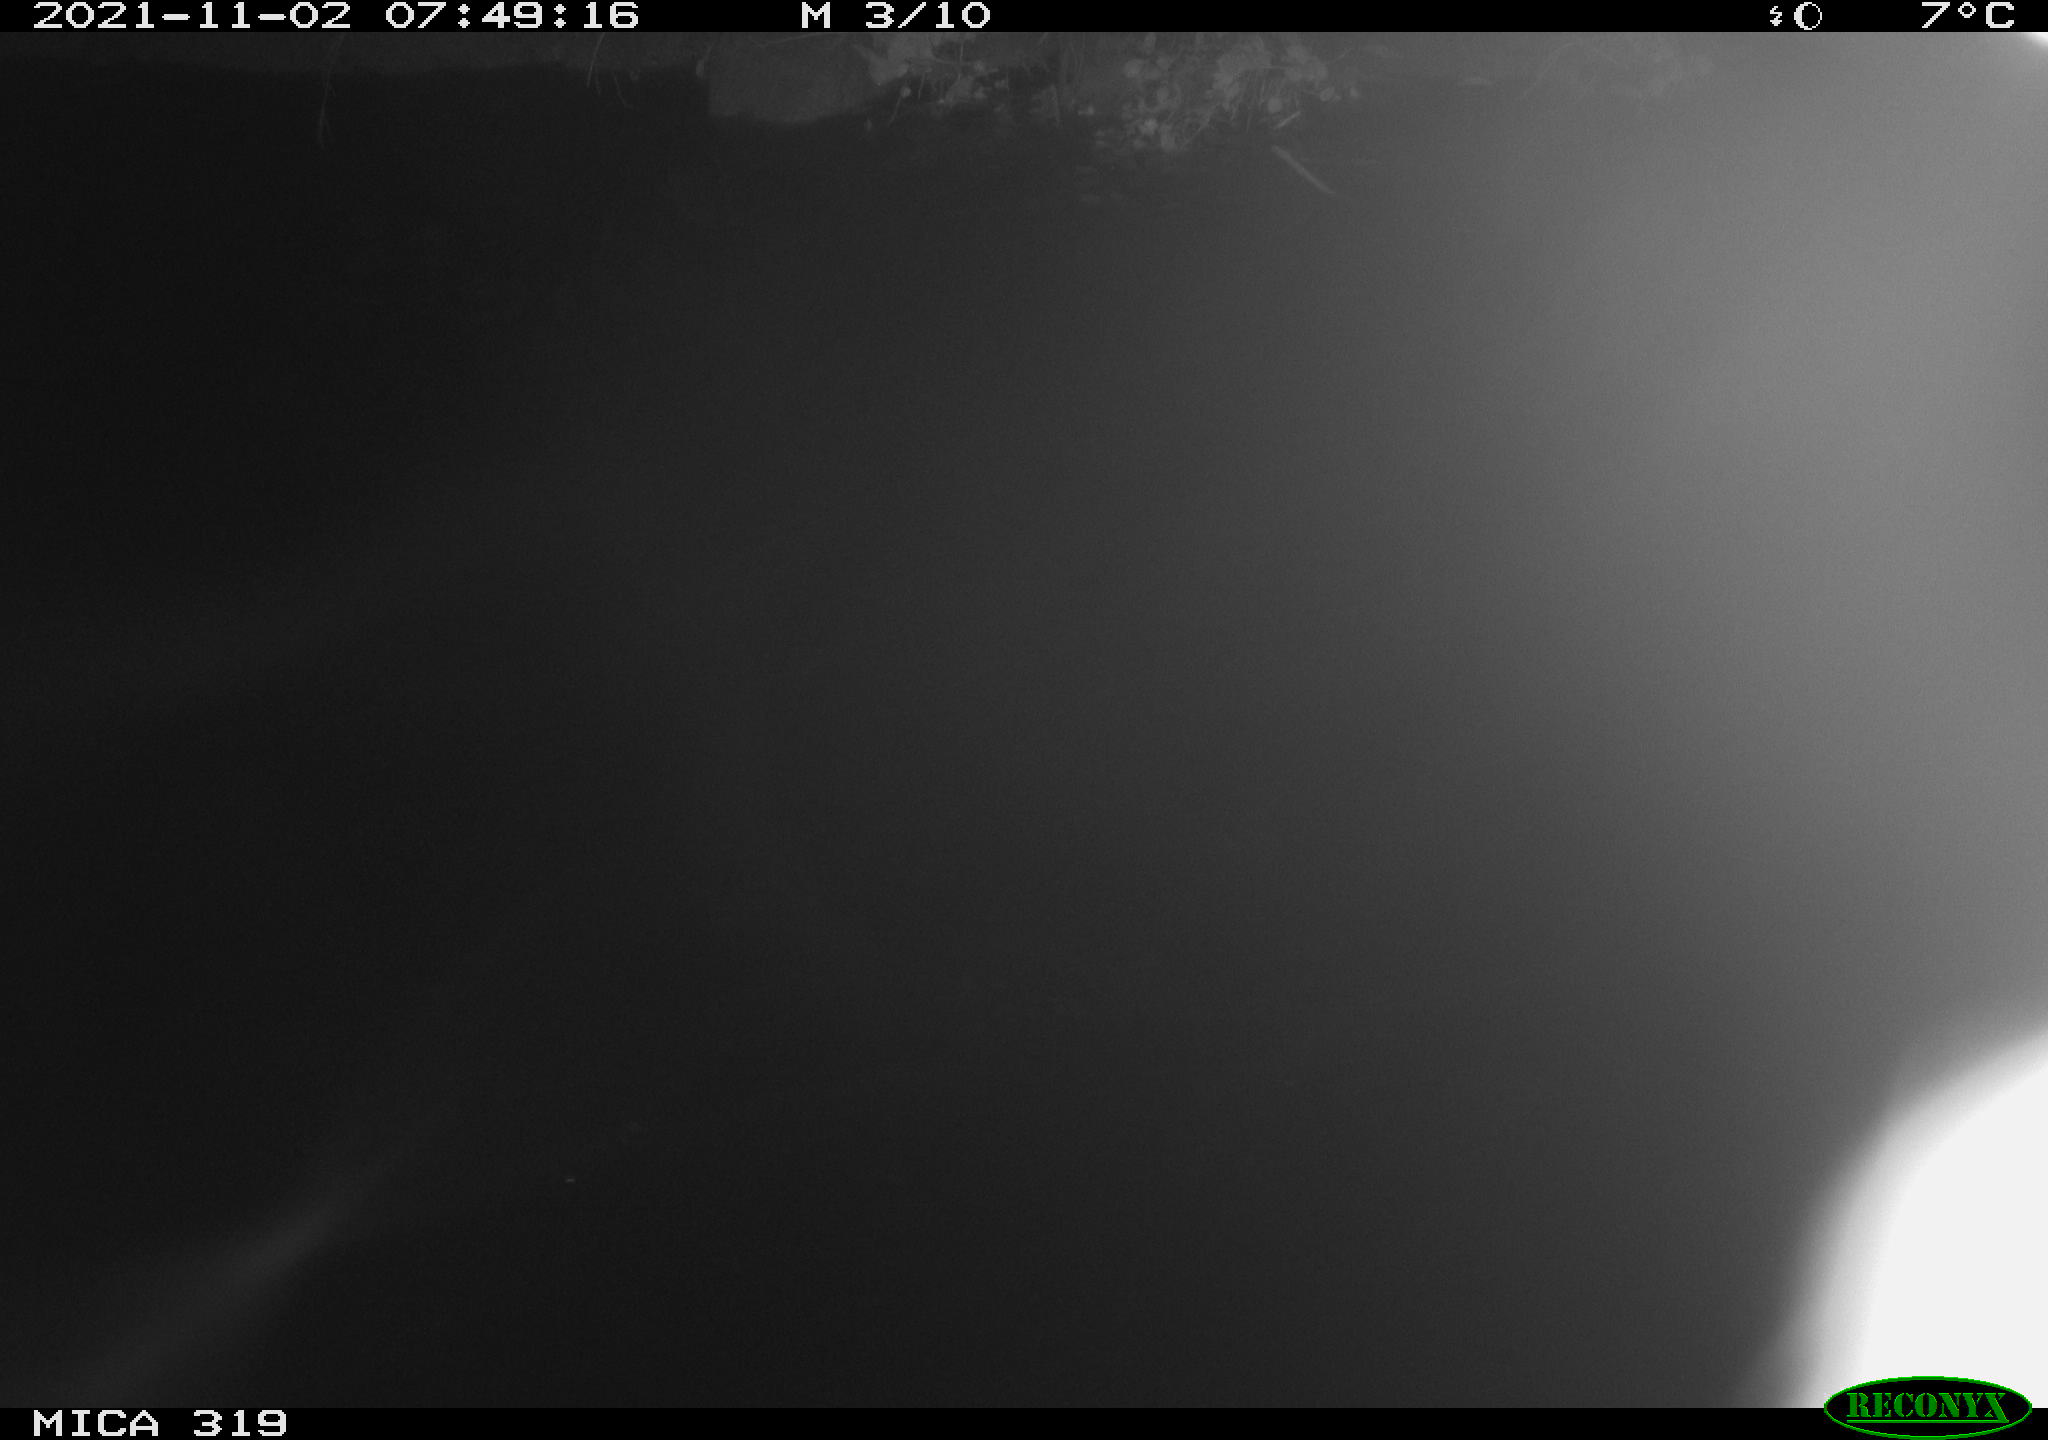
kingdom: Animalia
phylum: Chordata
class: Aves
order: Anseriformes
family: Anatidae
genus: Anas
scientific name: Anas platyrhynchos
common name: Mallard
